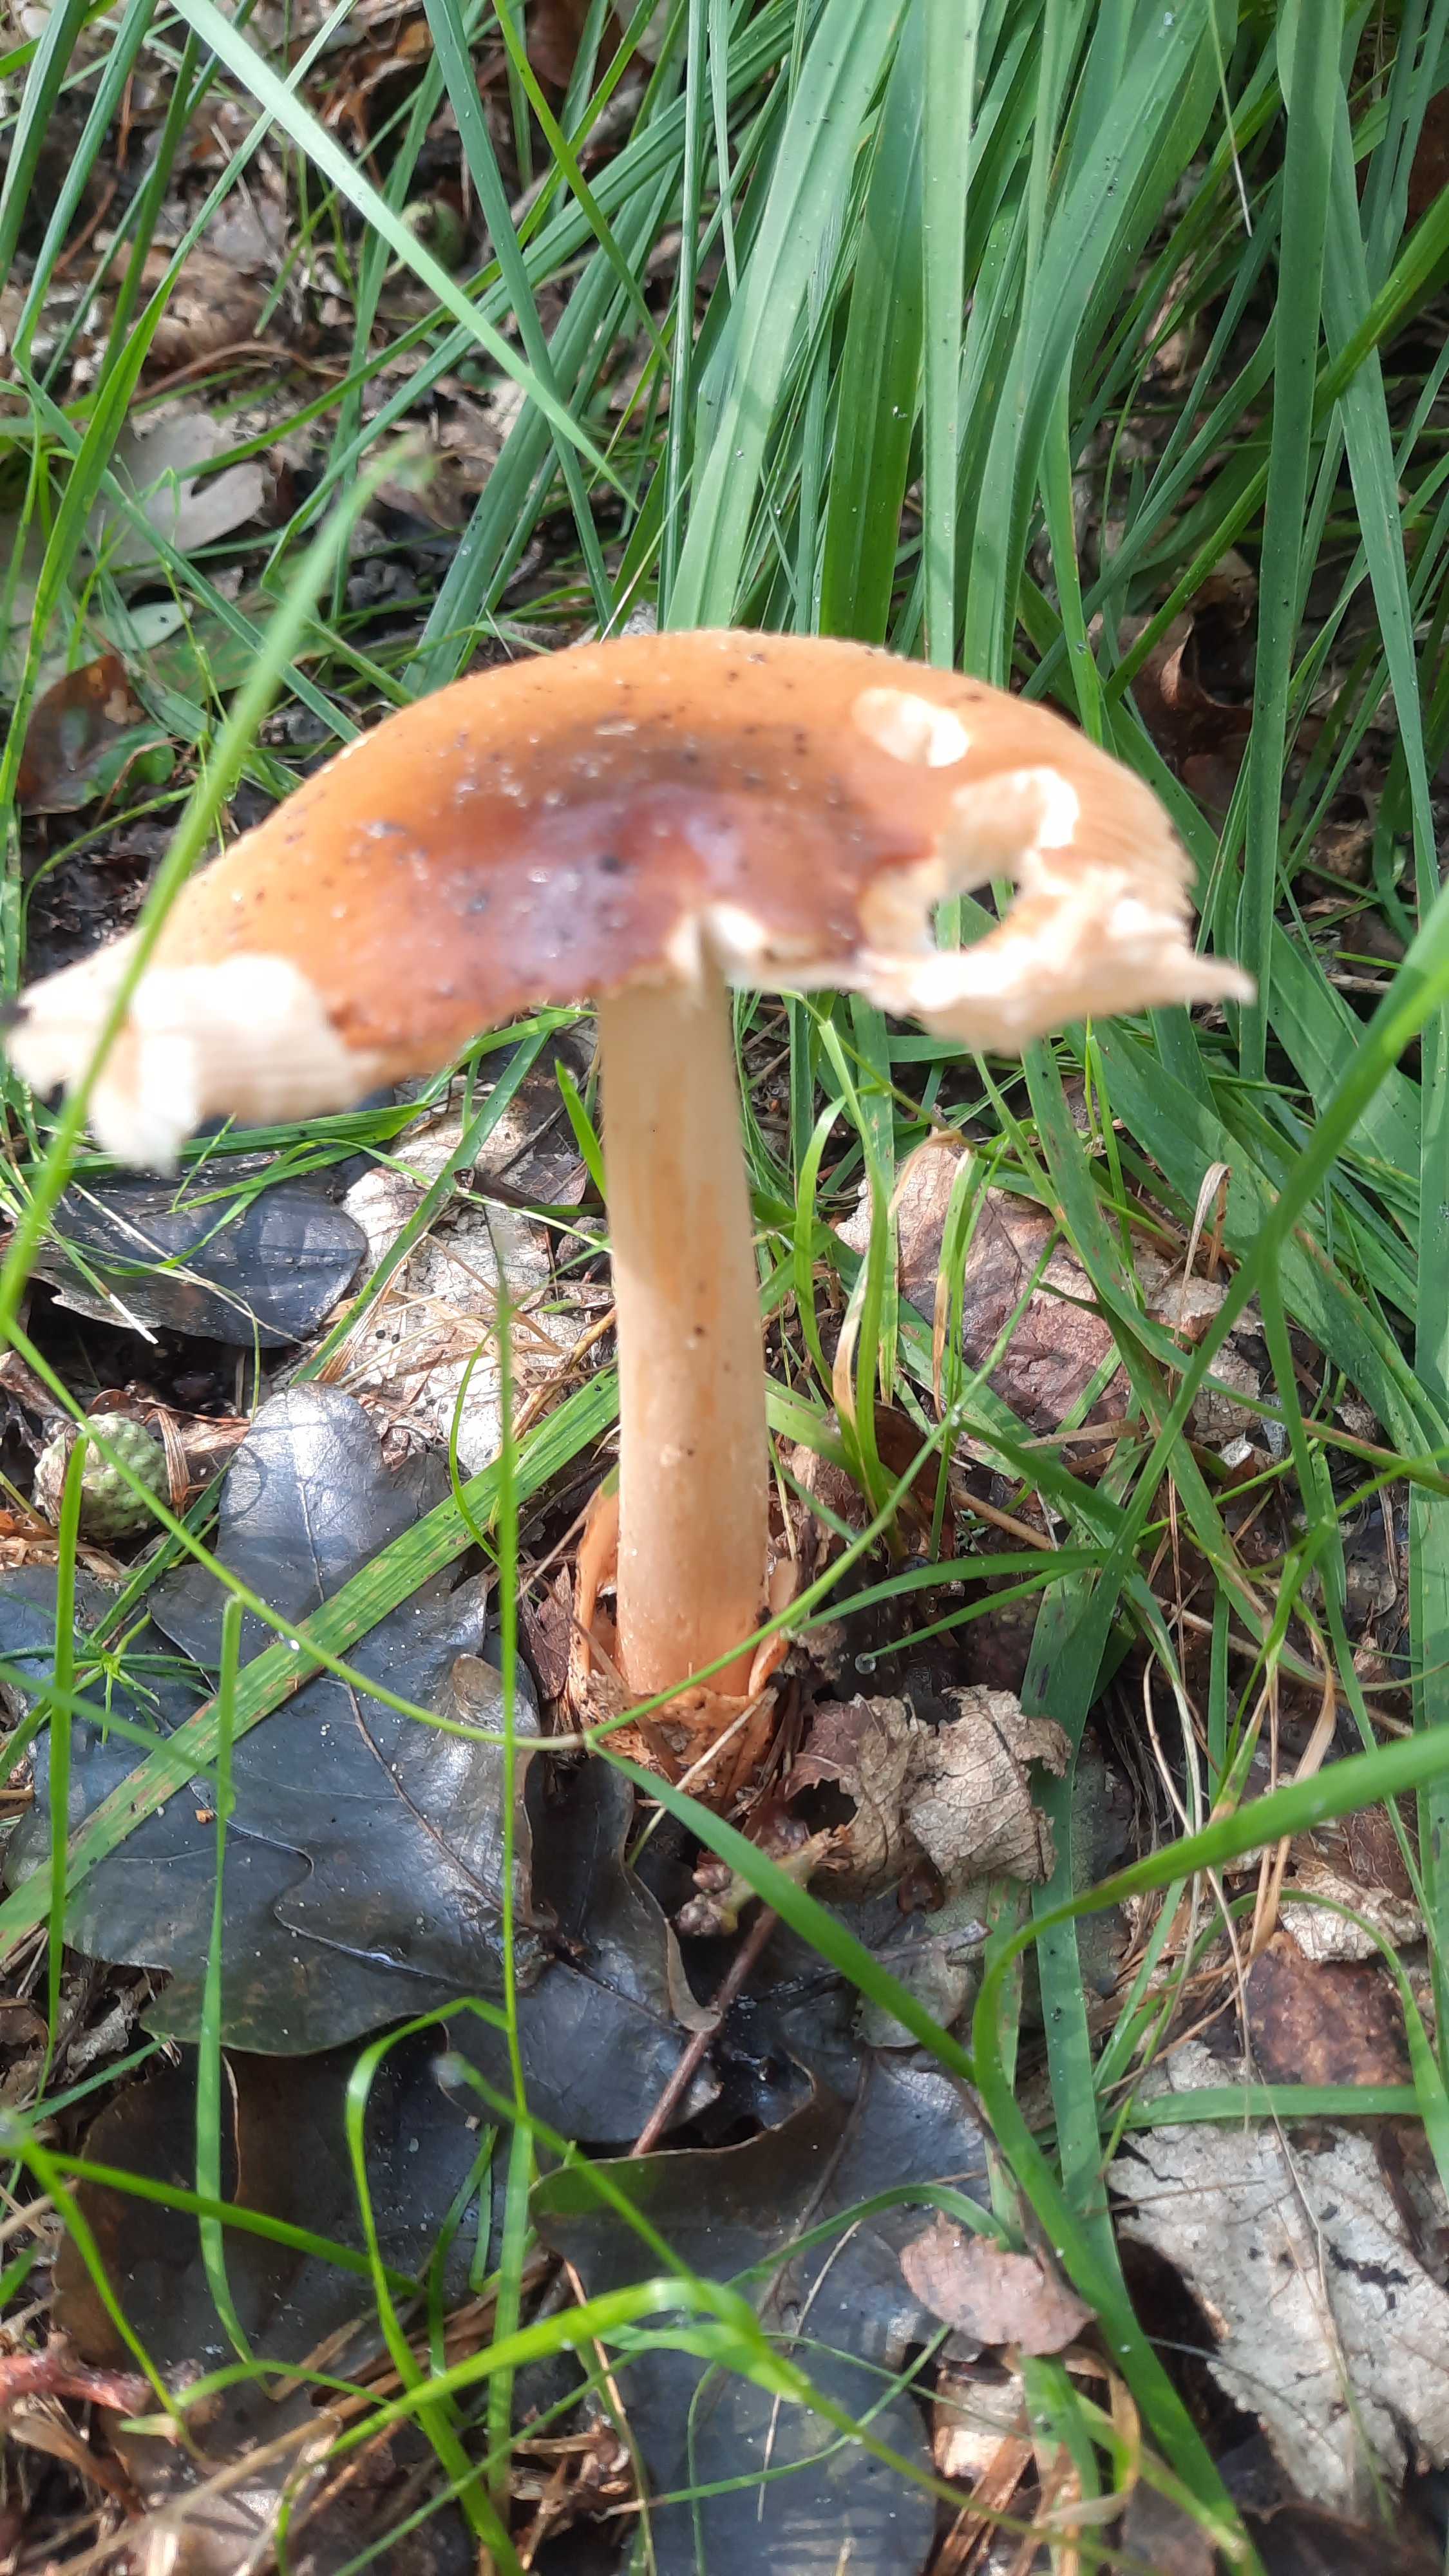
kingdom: Fungi
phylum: Basidiomycota
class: Agaricomycetes
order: Agaricales
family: Amanitaceae
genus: Amanita
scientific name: Amanita fulva
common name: brun kam-fluesvamp
